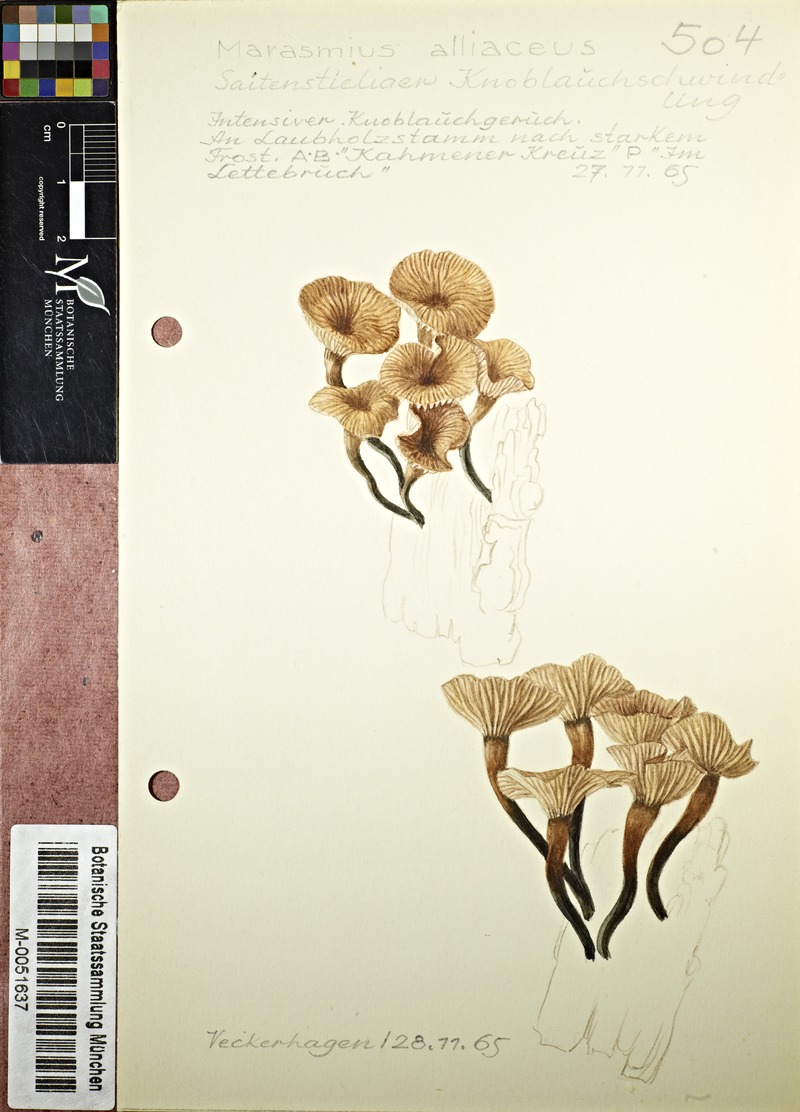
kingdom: Fungi
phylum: Basidiomycota
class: Agaricomycetes
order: Agaricales
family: Omphalotaceae
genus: Gymnopus
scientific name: Gymnopus foetidus
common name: Foetid parachute
